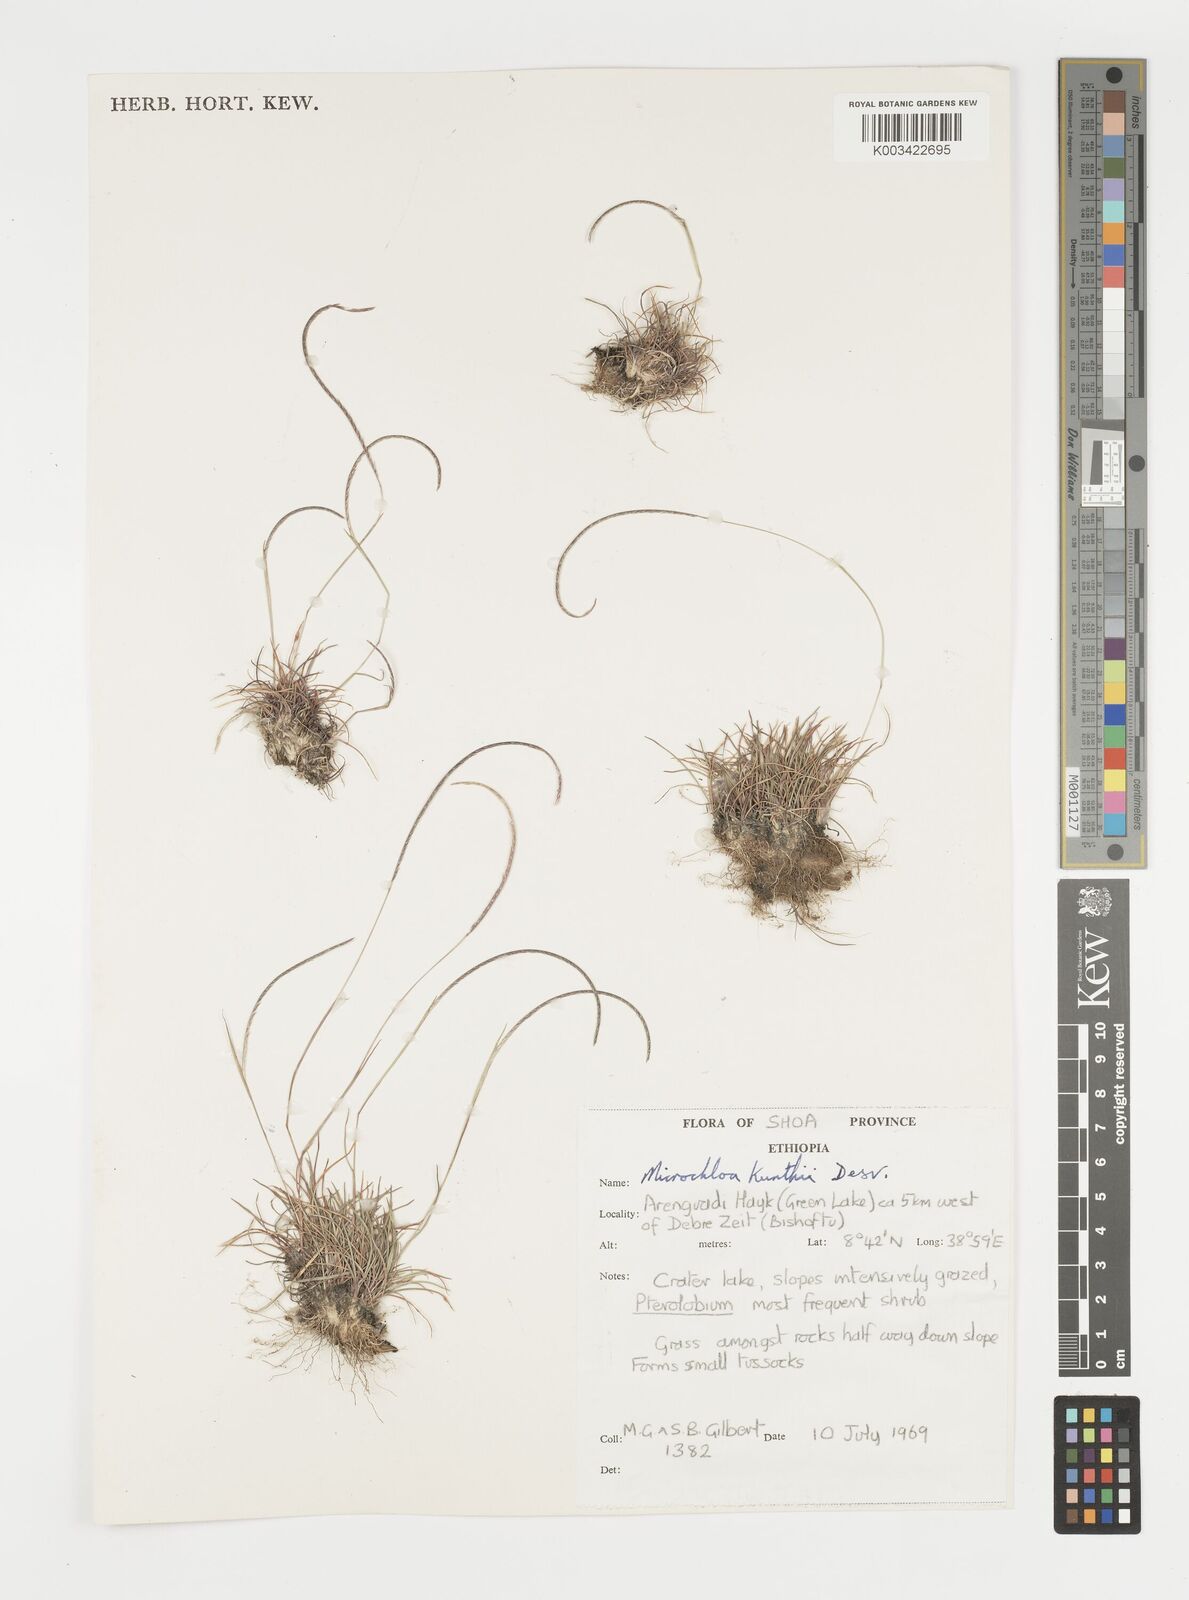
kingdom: Plantae
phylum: Tracheophyta
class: Liliopsida
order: Poales
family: Poaceae
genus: Microchloa
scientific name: Microchloa kunthii
